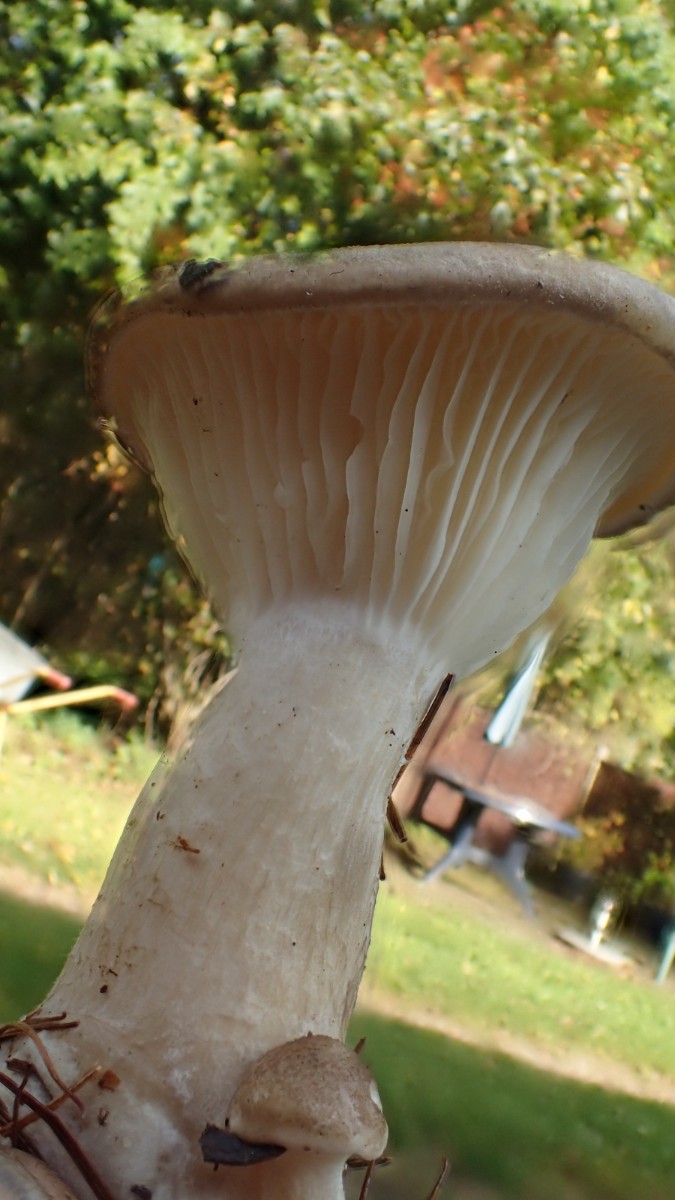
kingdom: Fungi
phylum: Basidiomycota
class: Agaricomycetes
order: Agaricales
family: Hygrophoraceae
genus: Ampulloclitocybe
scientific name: Ampulloclitocybe clavipes
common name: køllefod
